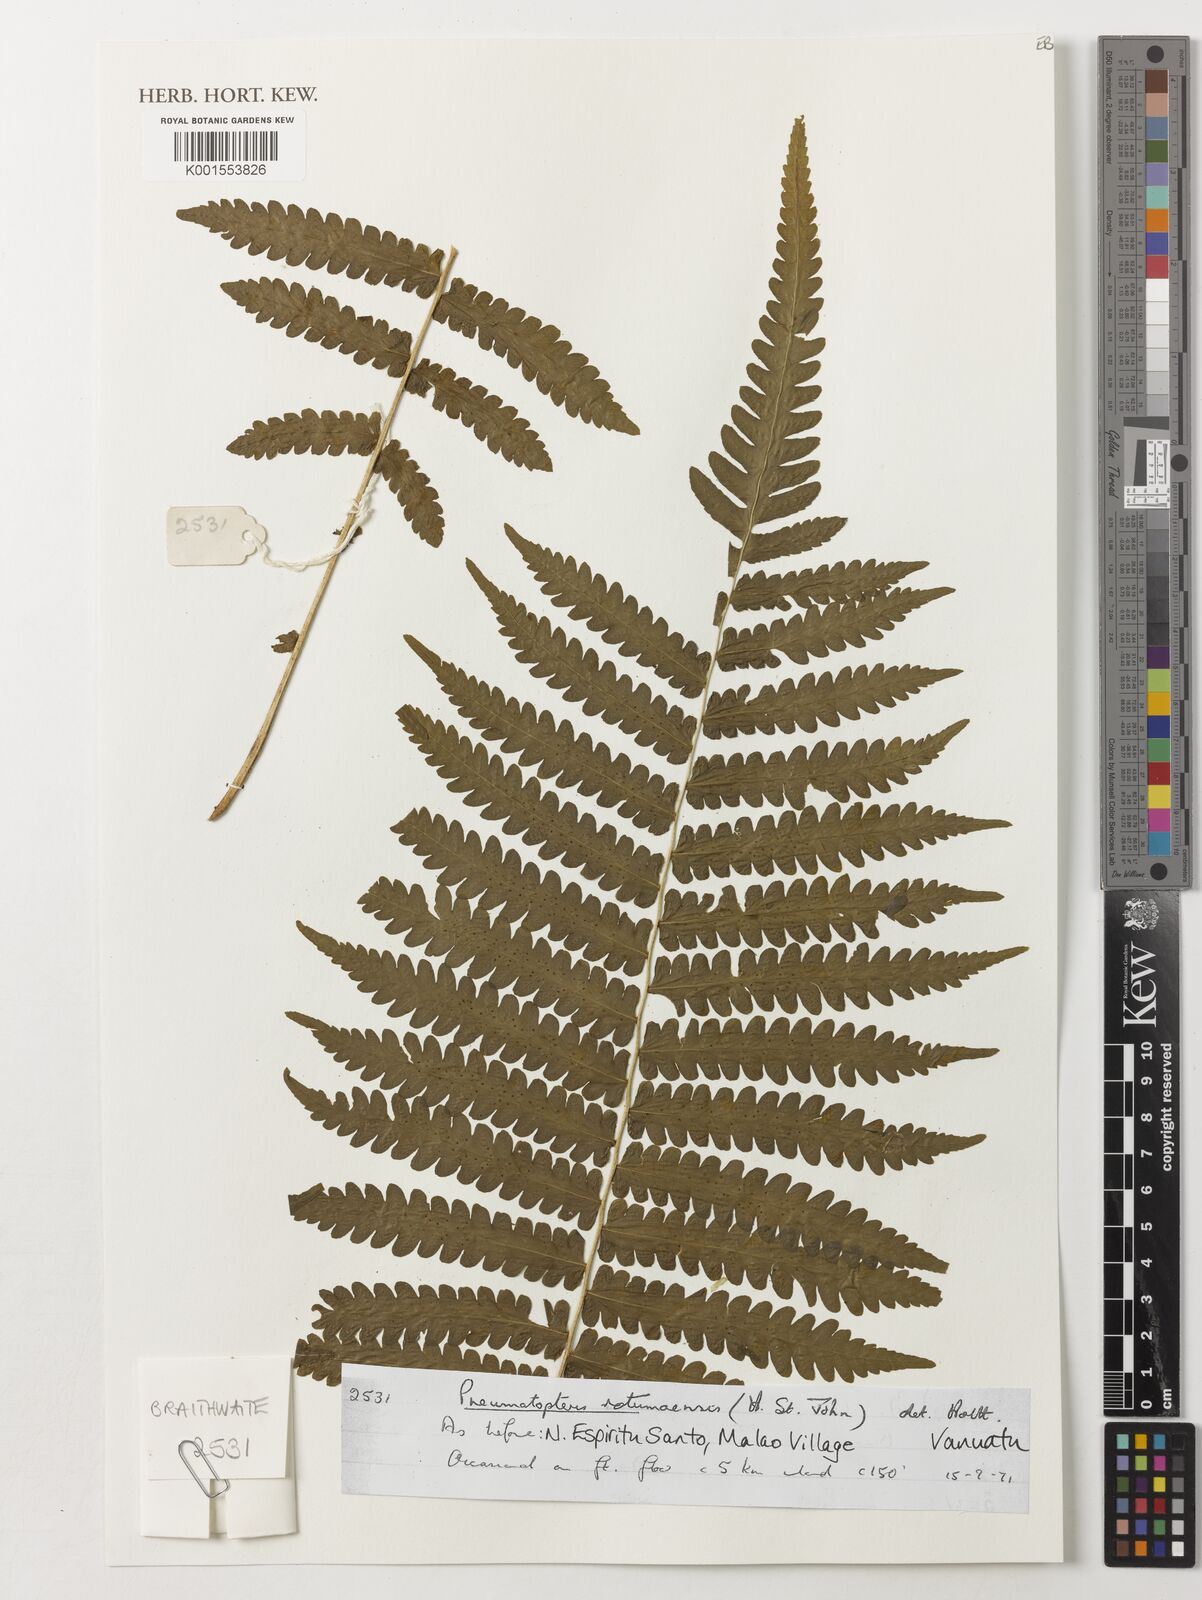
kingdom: Plantae
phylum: Tracheophyta
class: Polypodiopsida
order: Polypodiales
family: Thelypteridaceae
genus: Reholttumia
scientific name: Reholttumia rodigasiana
